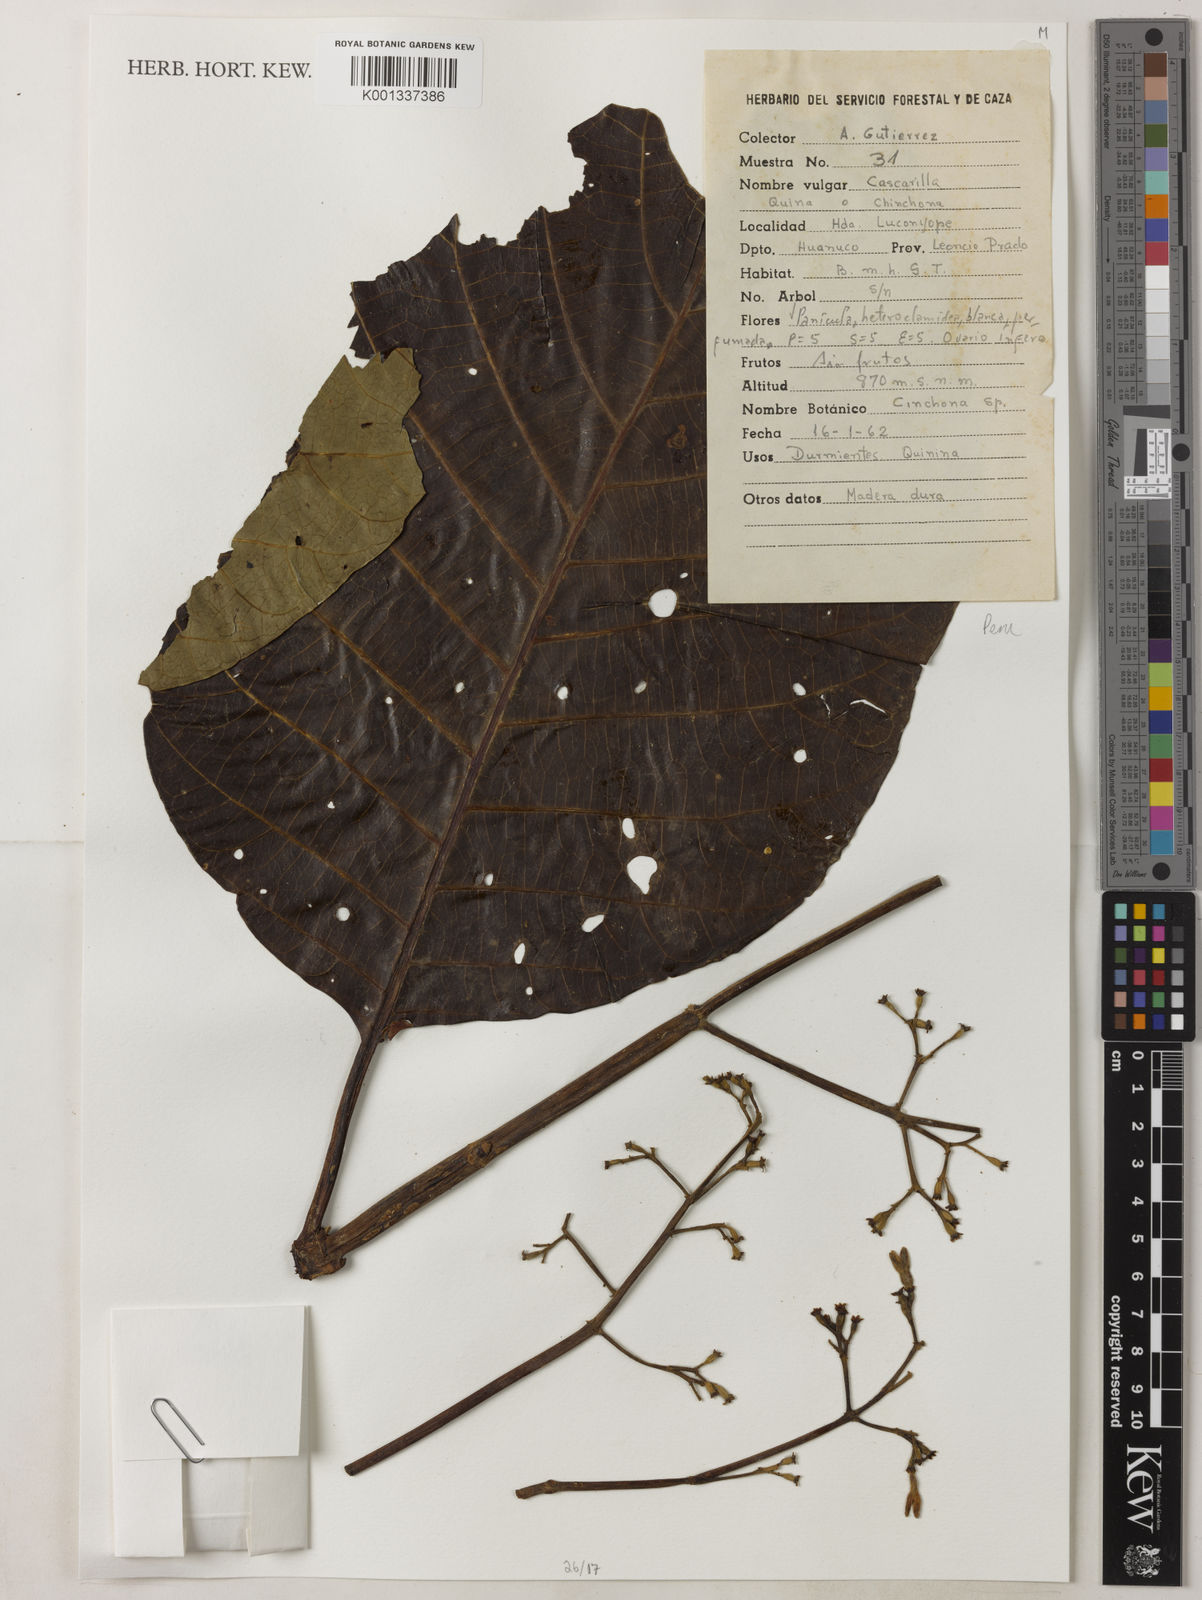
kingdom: Plantae
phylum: Tracheophyta
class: Magnoliopsida
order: Gentianales
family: Rubiaceae
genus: Cinchona
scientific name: Cinchona
